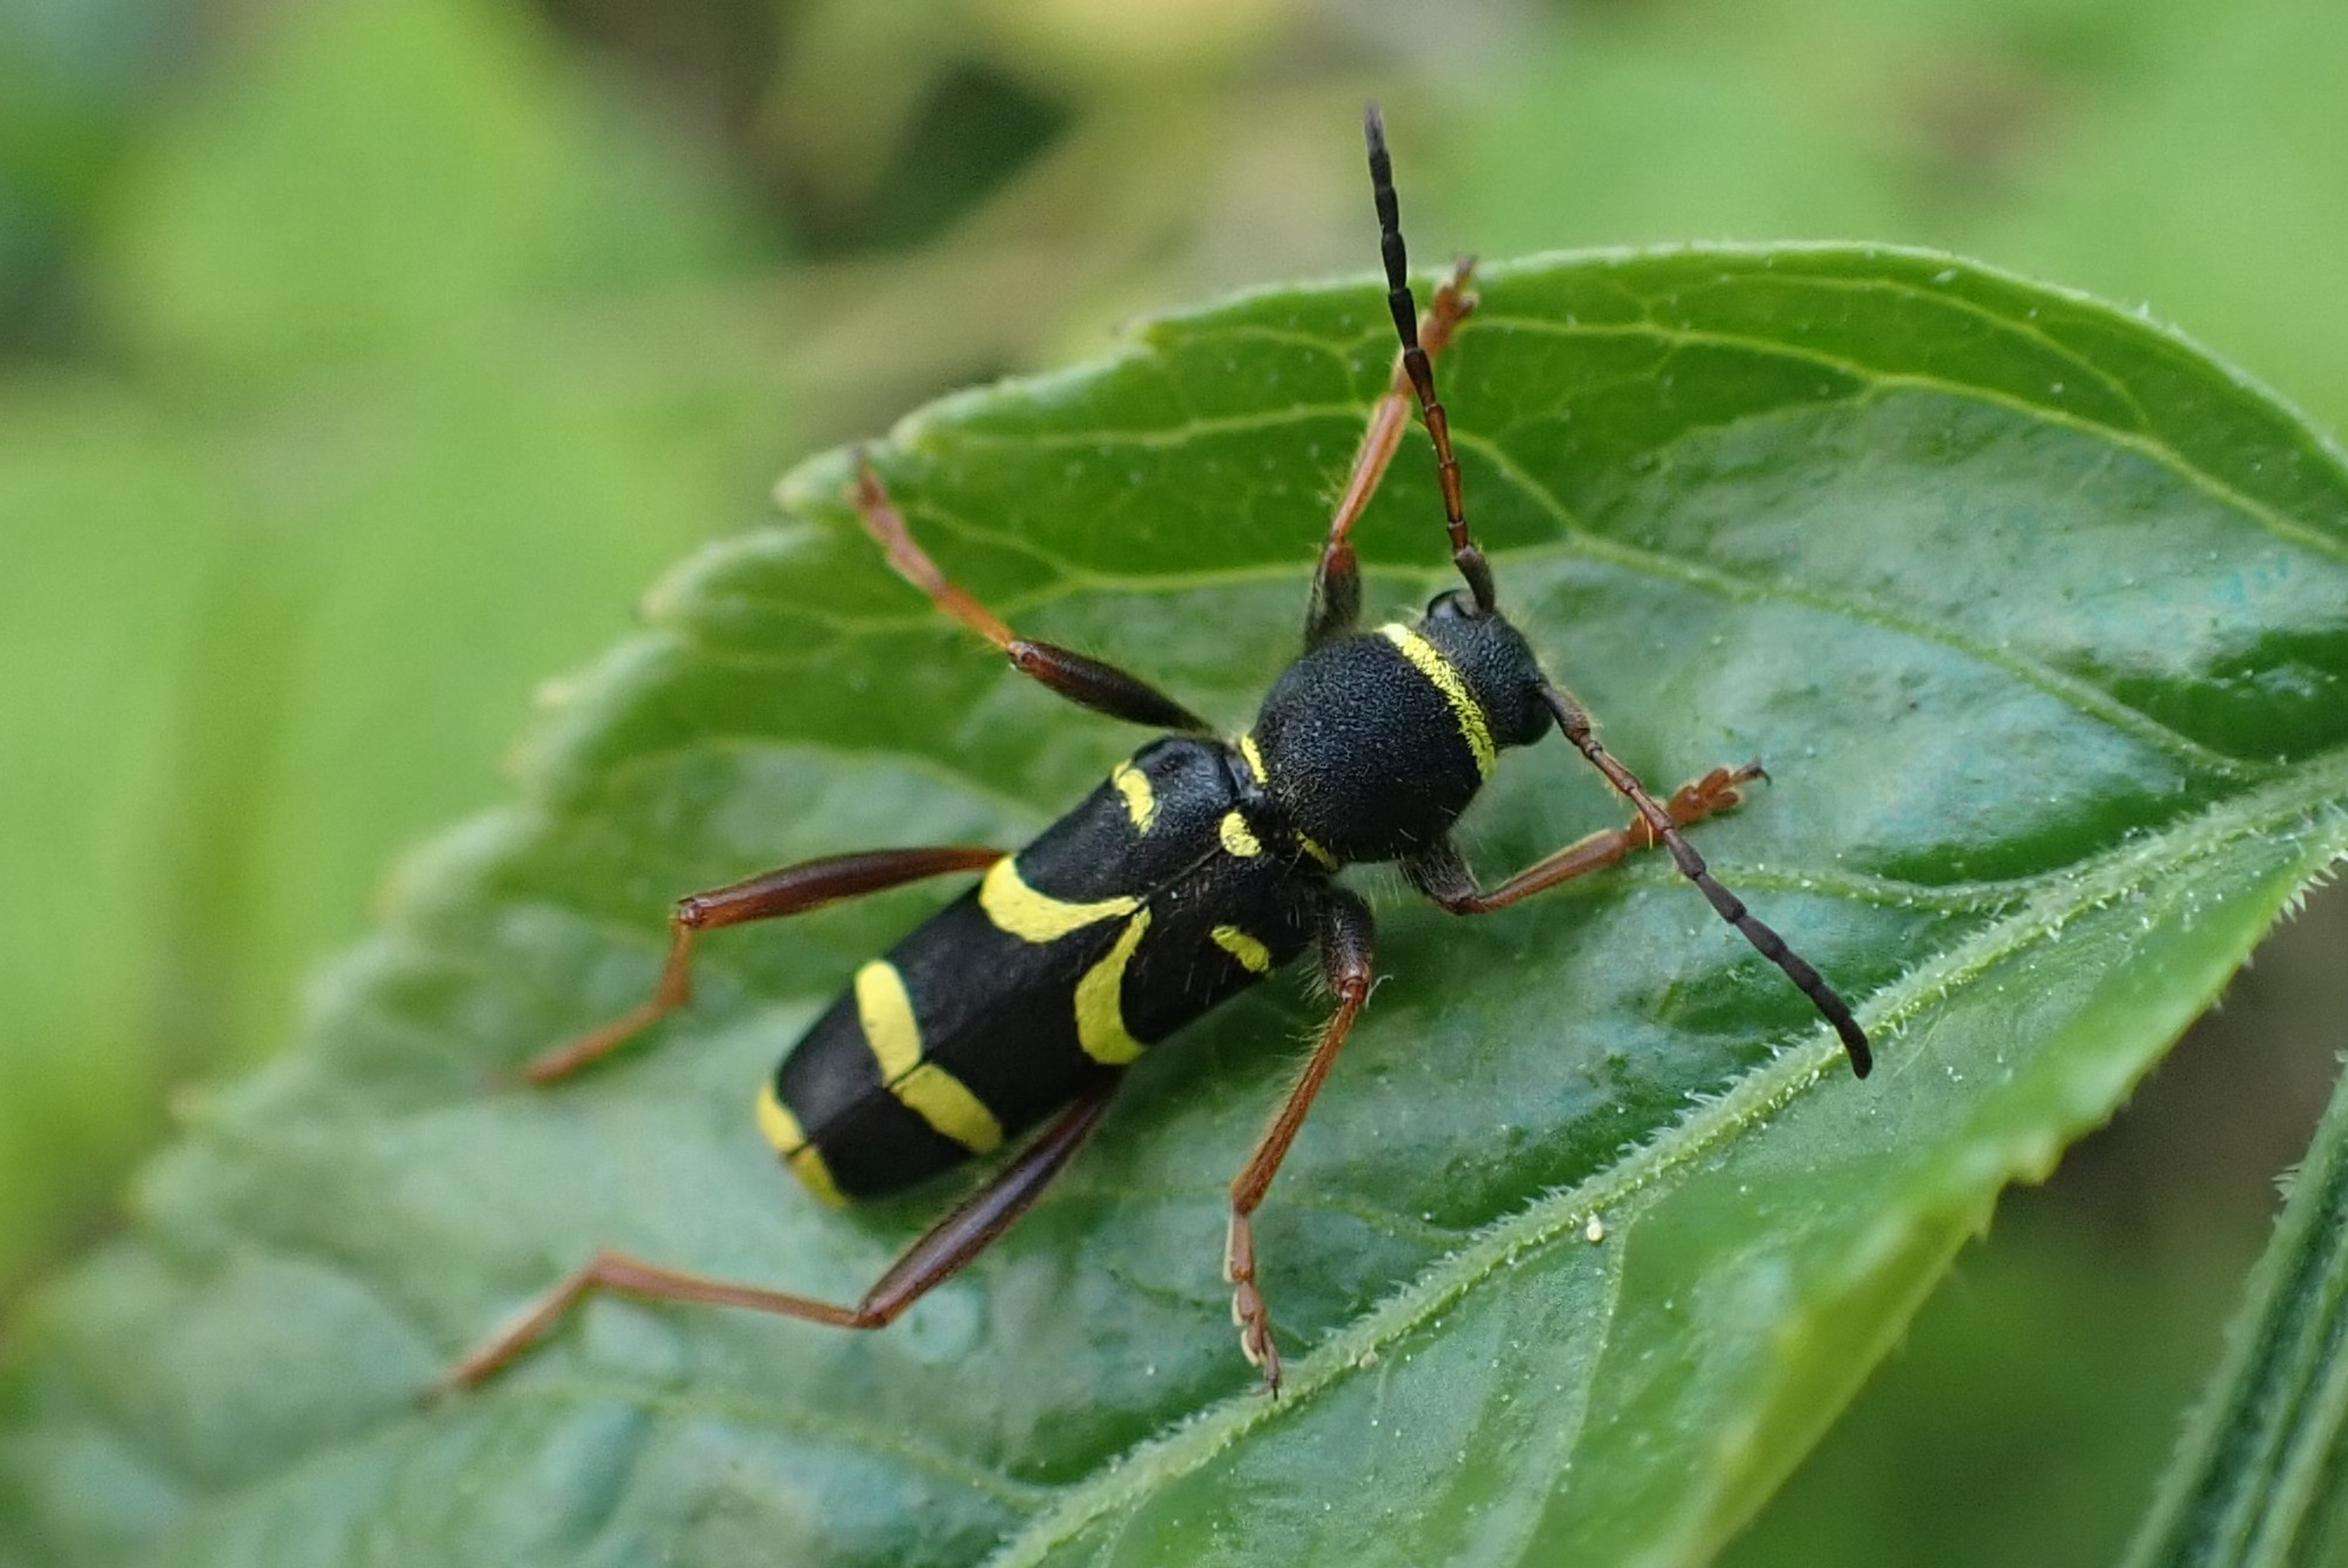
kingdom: Animalia
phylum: Arthropoda
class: Insecta
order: Coleoptera
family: Cerambycidae
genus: Clytus
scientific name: Clytus arietis
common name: Lille hvepsebuk
